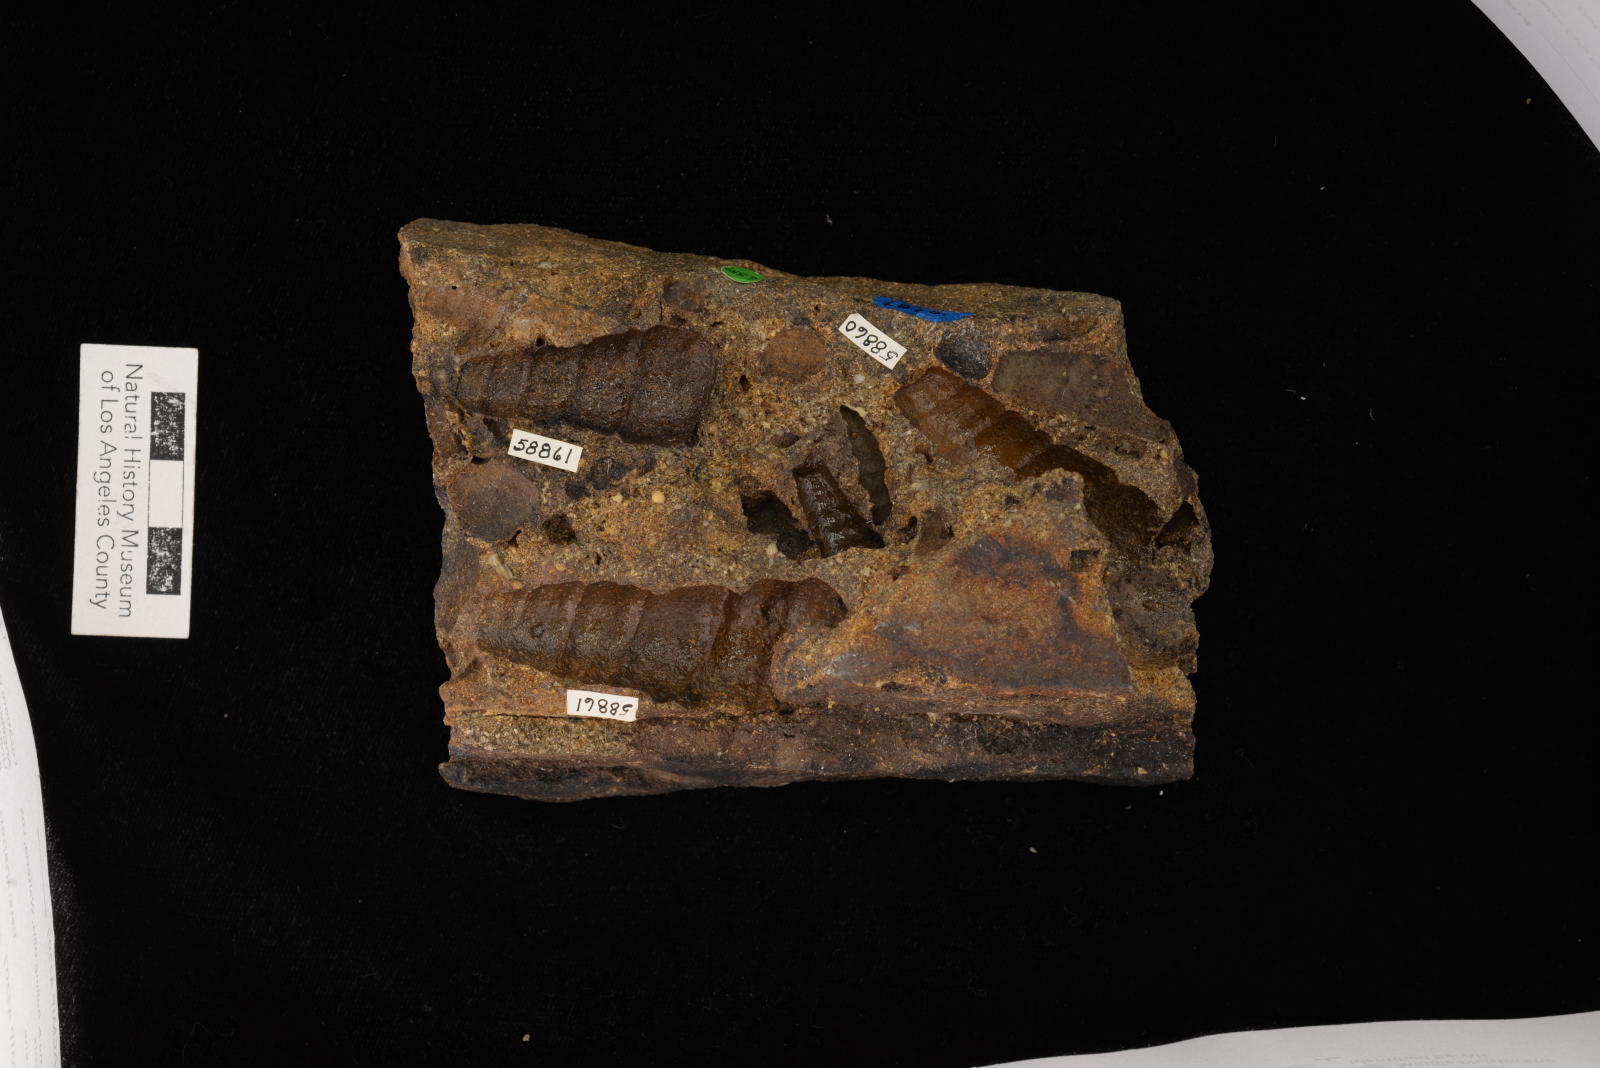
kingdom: Animalia
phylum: Mollusca
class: Gastropoda
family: Turritellidae
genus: Turritella
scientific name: Turritella peninsularis
